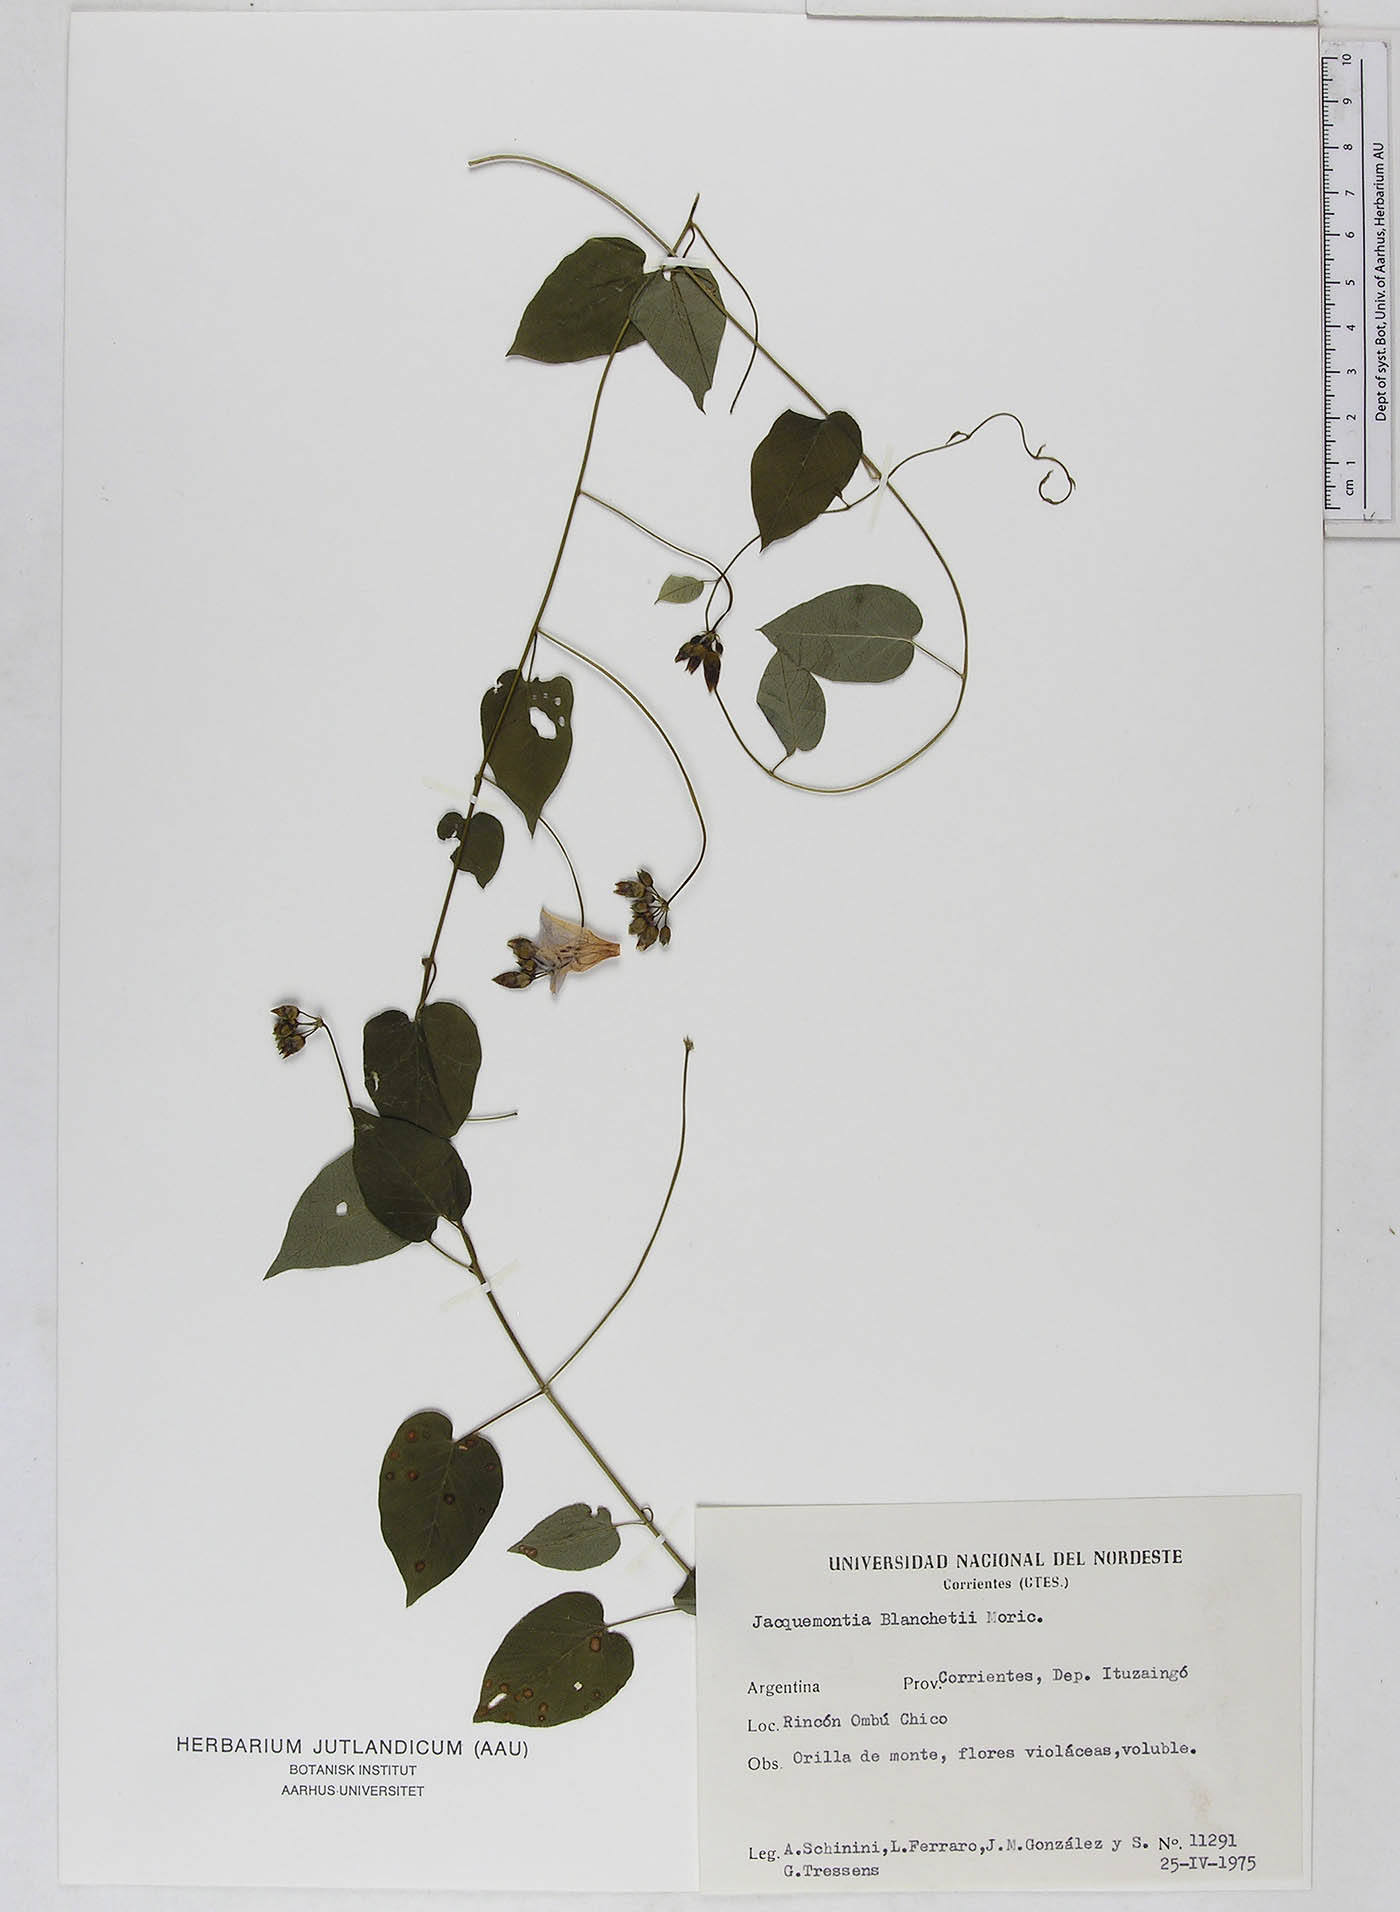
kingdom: Plantae
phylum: Tracheophyta
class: Magnoliopsida
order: Solanales
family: Convolvulaceae
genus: Jacquemontia
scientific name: Jacquemontia blanchetii
